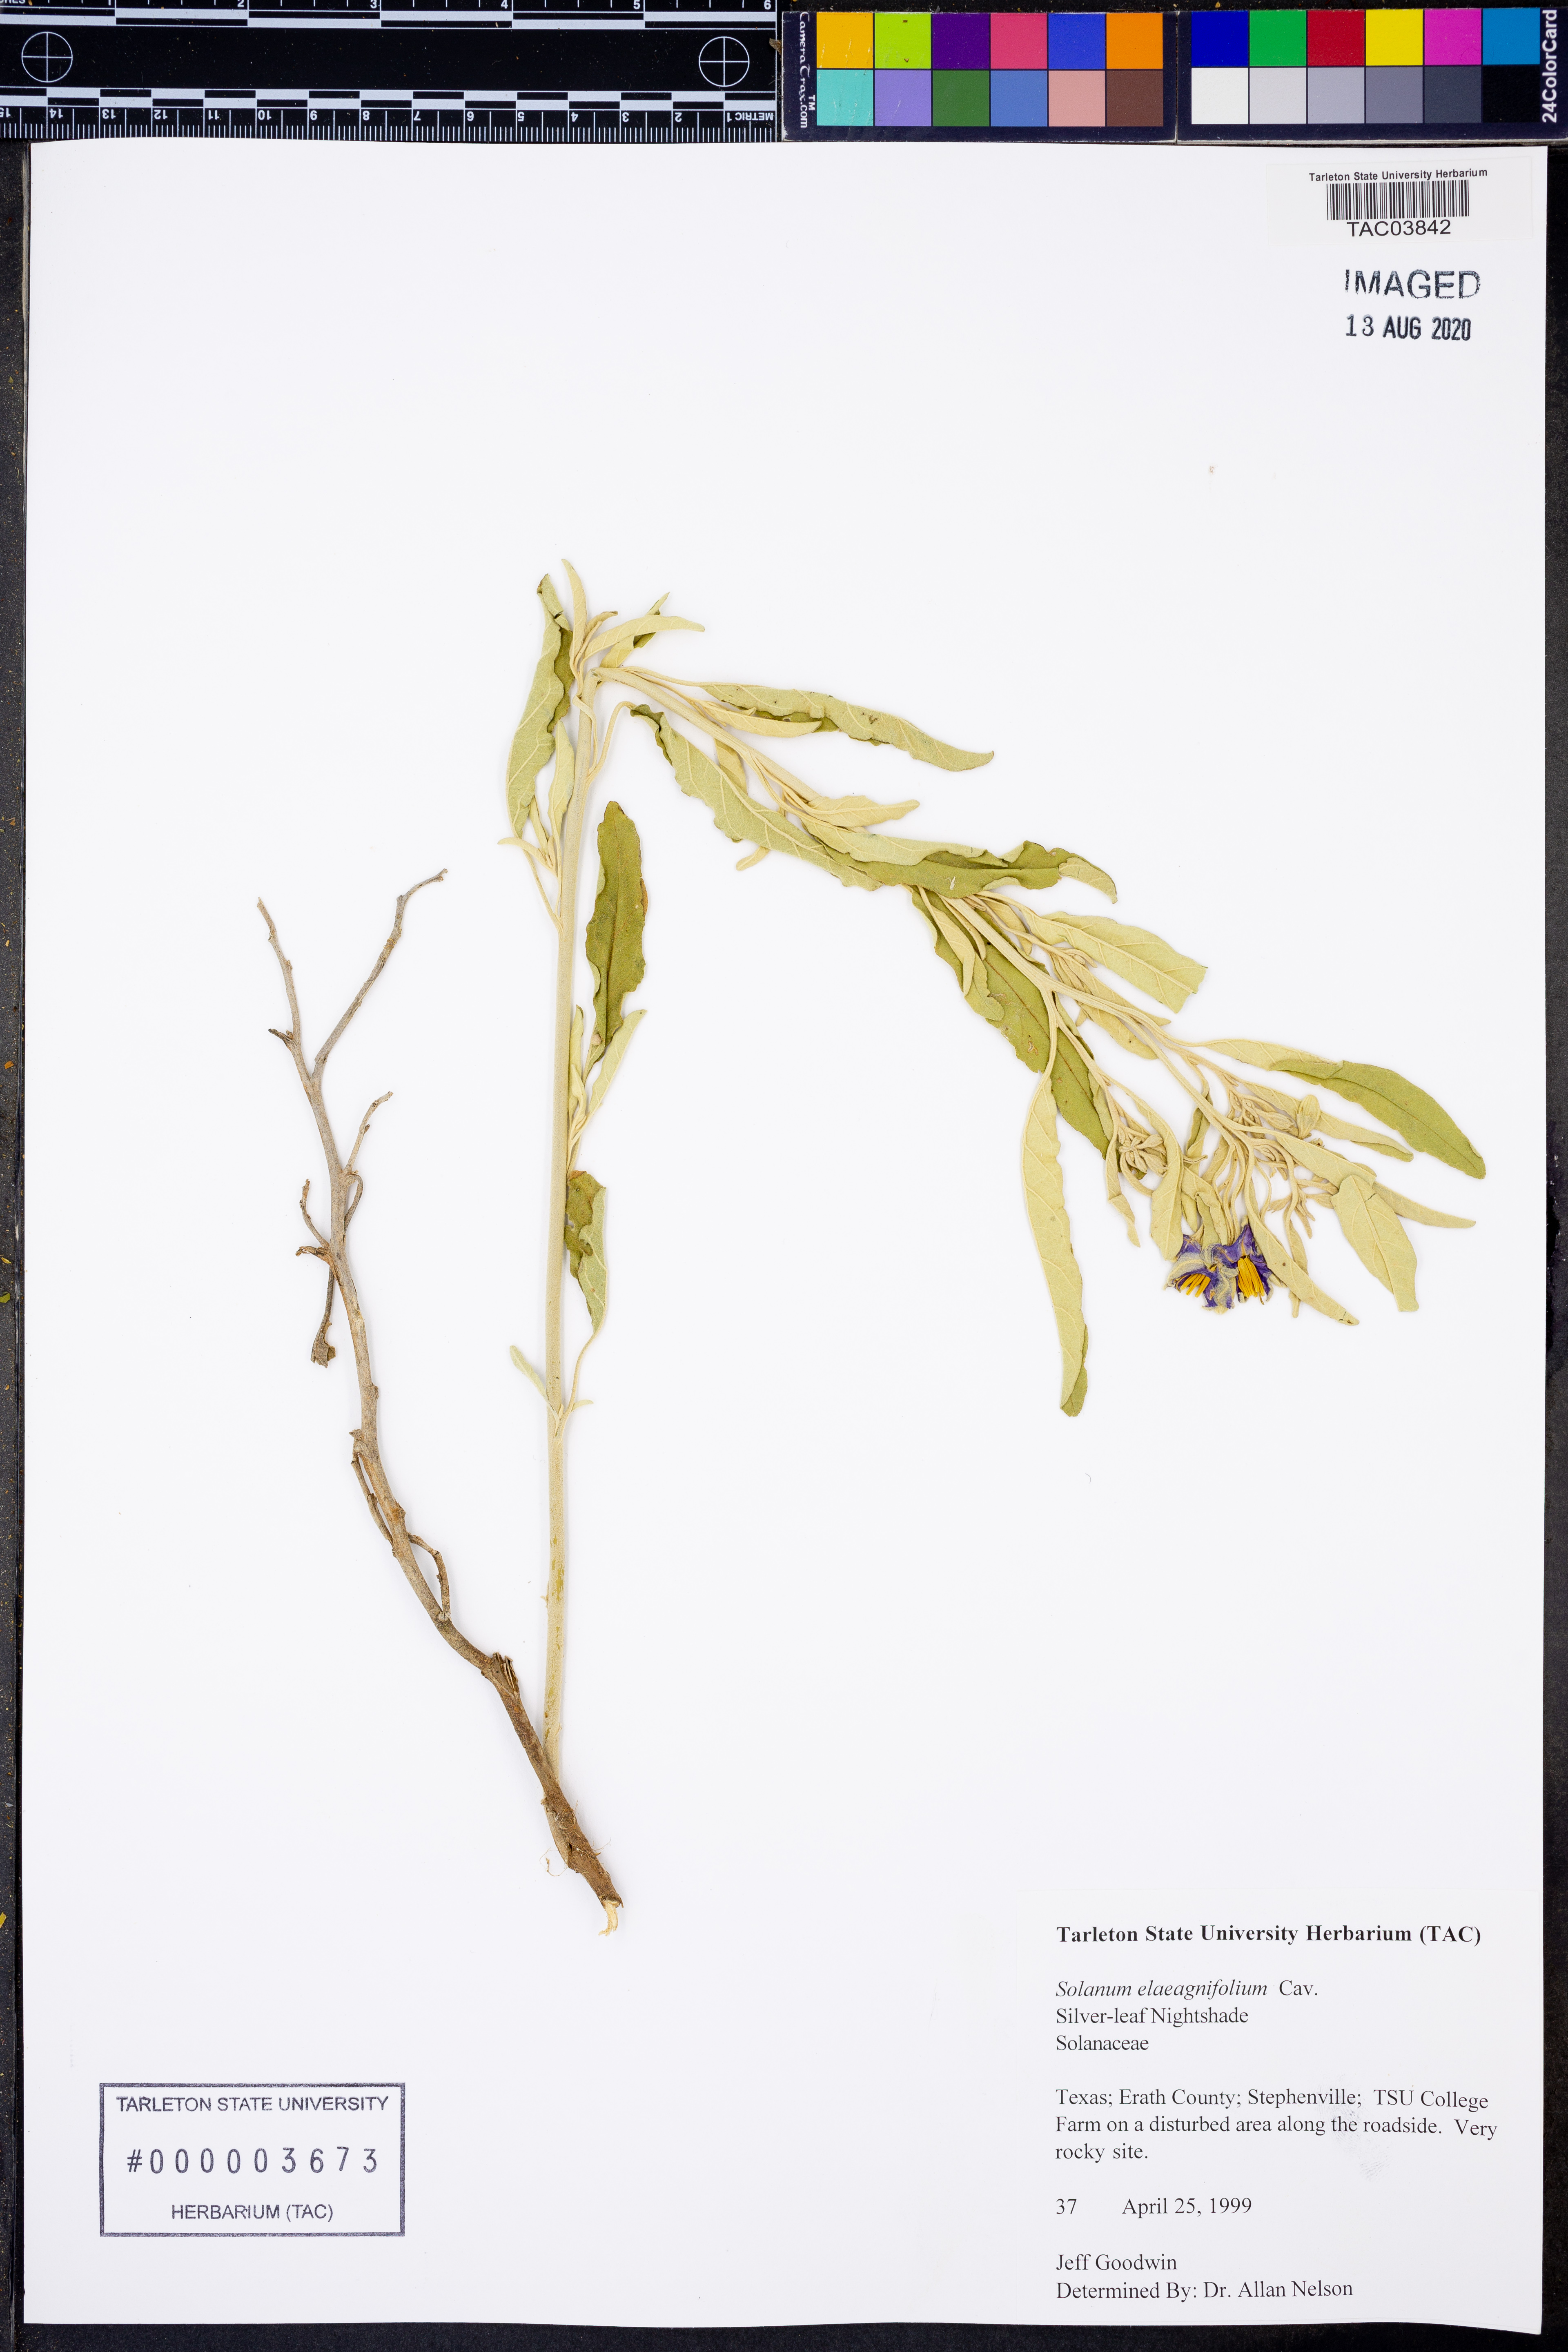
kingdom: Plantae
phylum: Tracheophyta
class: Magnoliopsida
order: Solanales
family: Solanaceae
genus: Solanum
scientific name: Solanum elaeagnifolium
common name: Silverleaf nightshade
